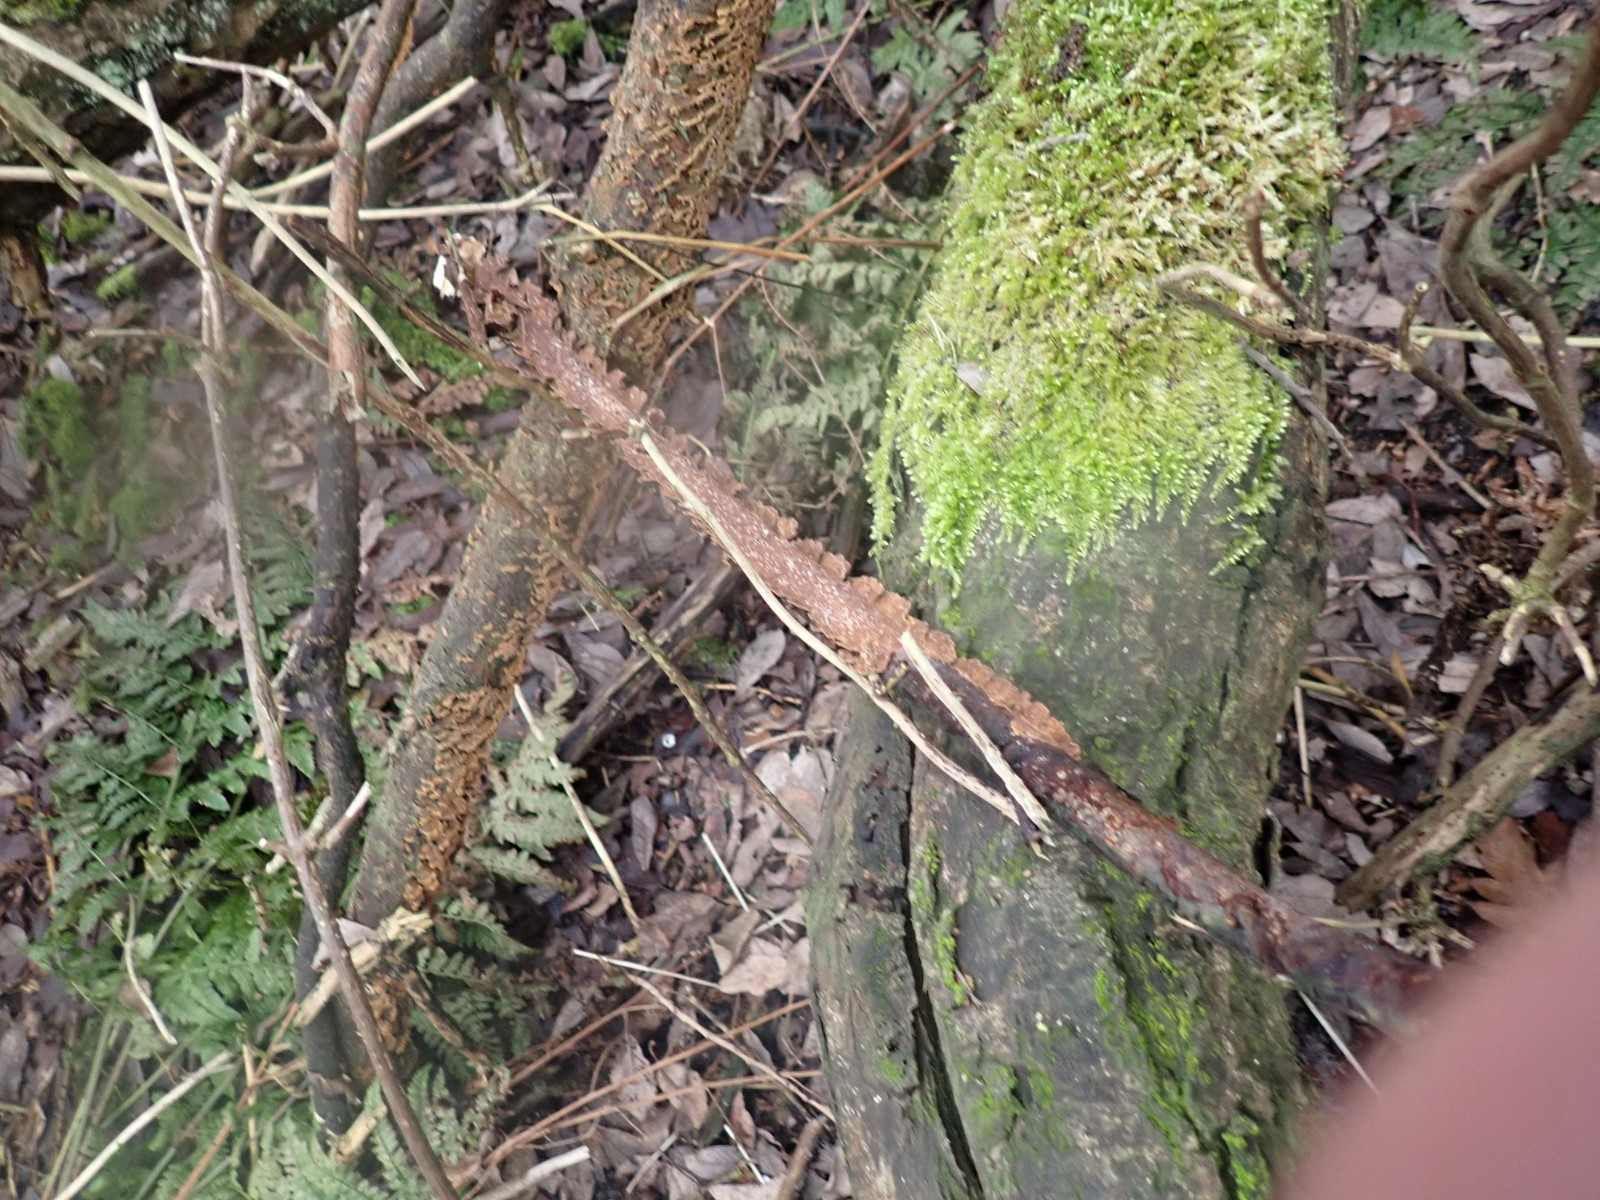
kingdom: Fungi
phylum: Basidiomycota
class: Agaricomycetes
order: Hymenochaetales
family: Hymenochaetaceae
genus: Hydnoporia
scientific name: Hydnoporia tabacina
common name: tobaksbrun ruslædersvamp
